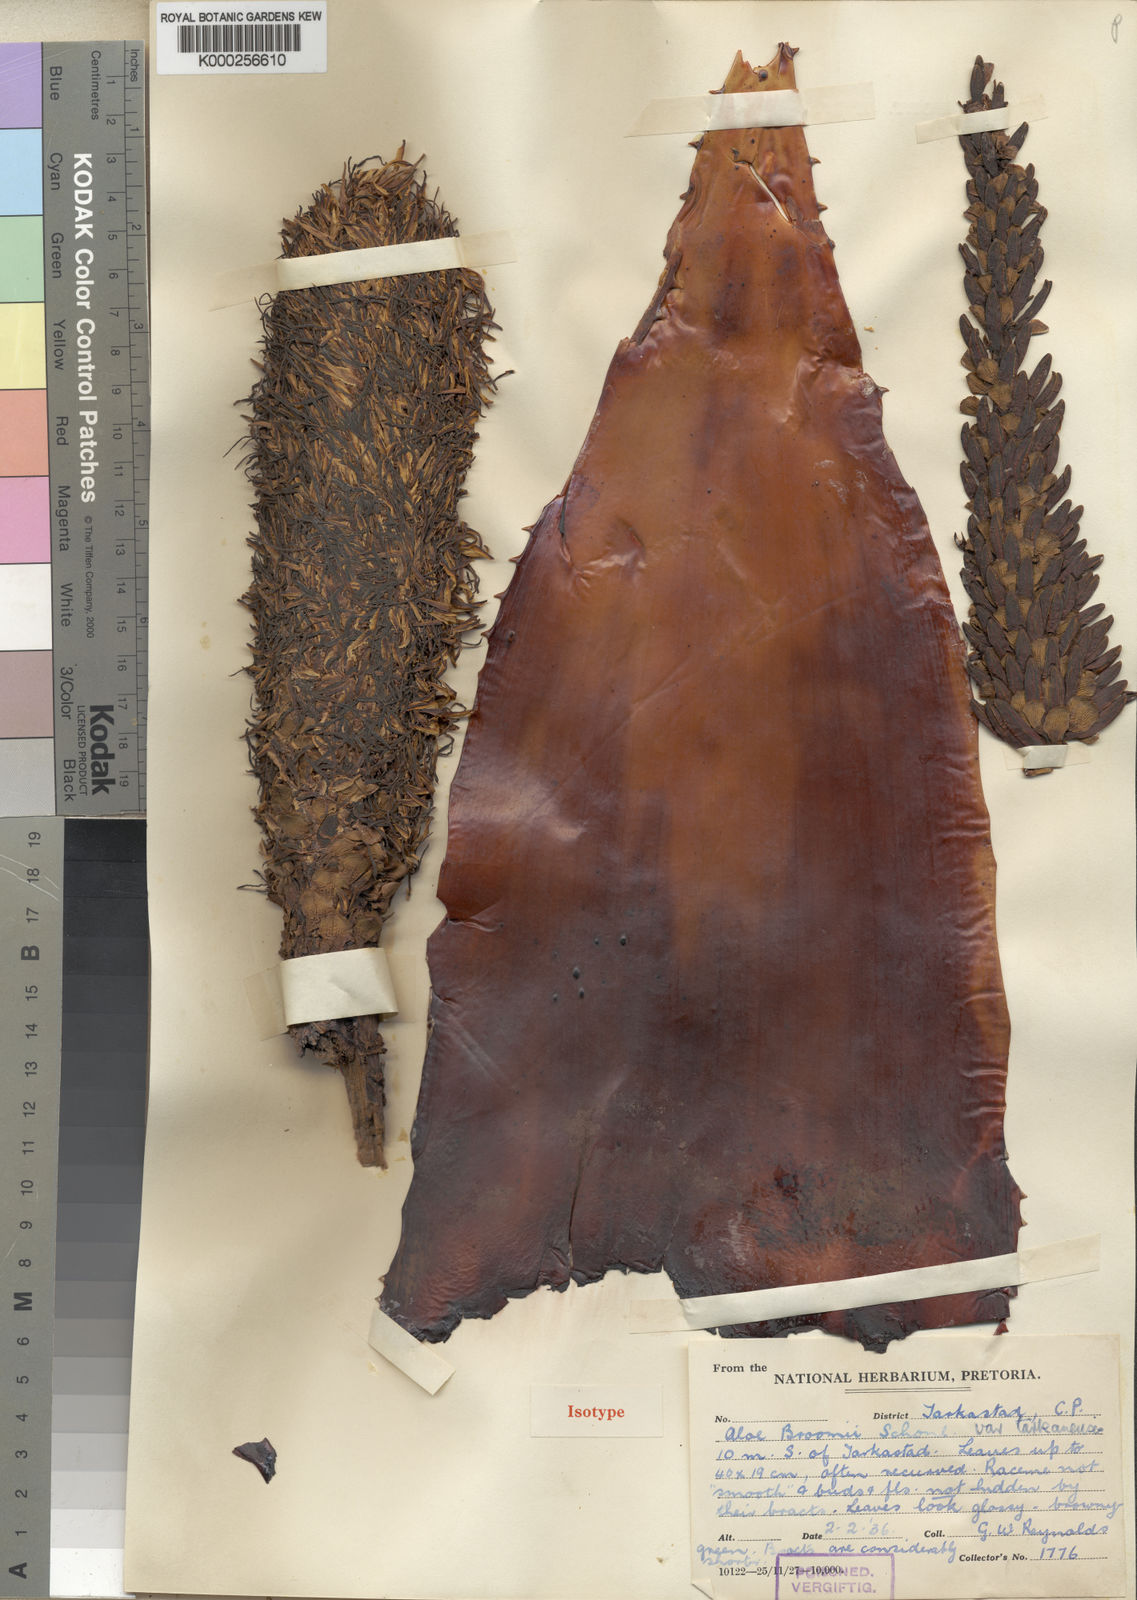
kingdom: Plantae
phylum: Tracheophyta
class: Liliopsida
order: Asparagales
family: Asphodelaceae
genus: Aloe
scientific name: Aloe
